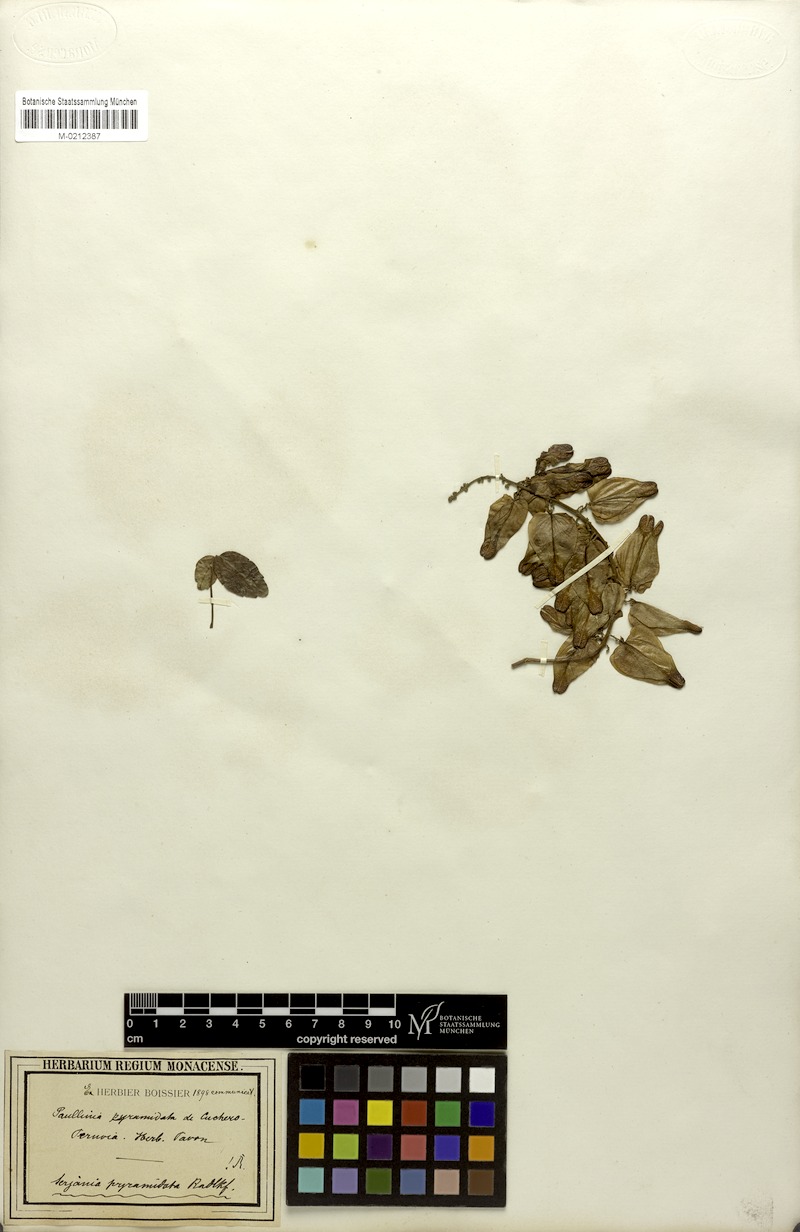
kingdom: Plantae
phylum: Tracheophyta
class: Magnoliopsida
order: Sapindales
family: Sapindaceae
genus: Serjania
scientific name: Serjania pyramidata
